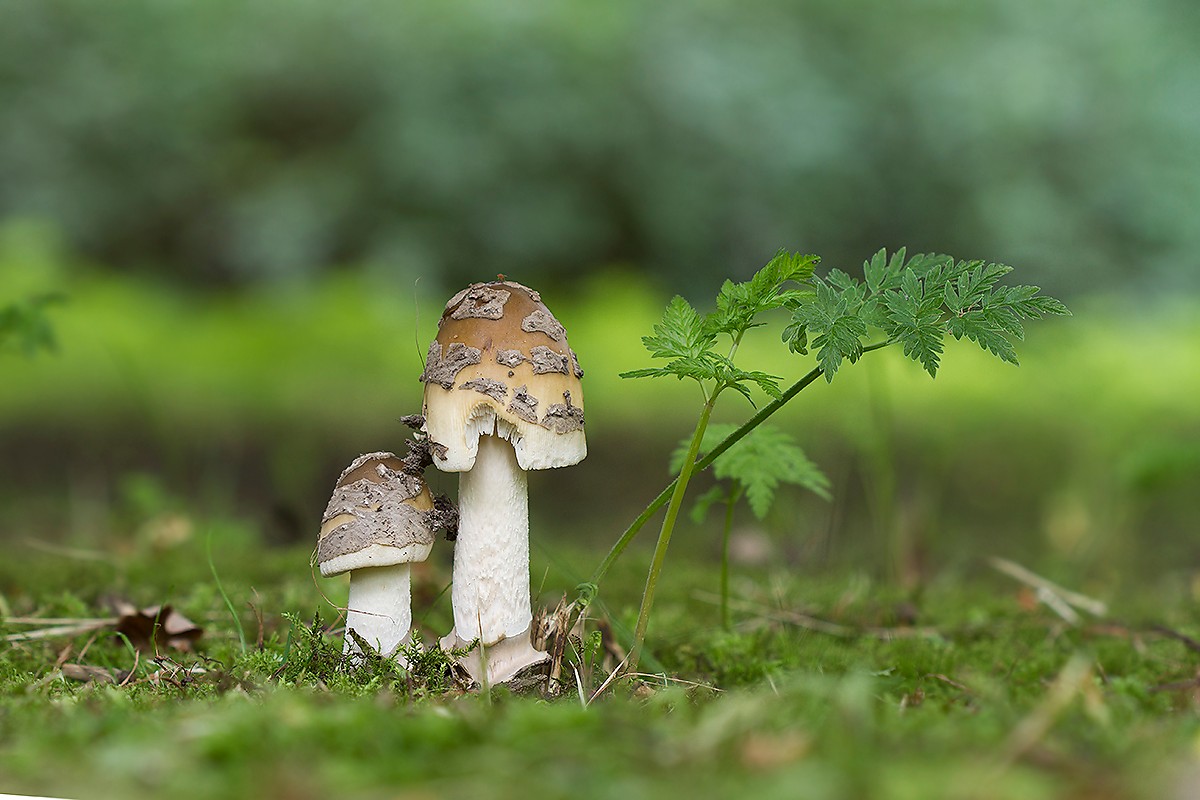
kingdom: Fungi
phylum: Basidiomycota
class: Agaricomycetes
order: Agaricales
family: Amanitaceae
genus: Amanita
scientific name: Amanita ceciliae
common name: stor kam-fluesvamp
